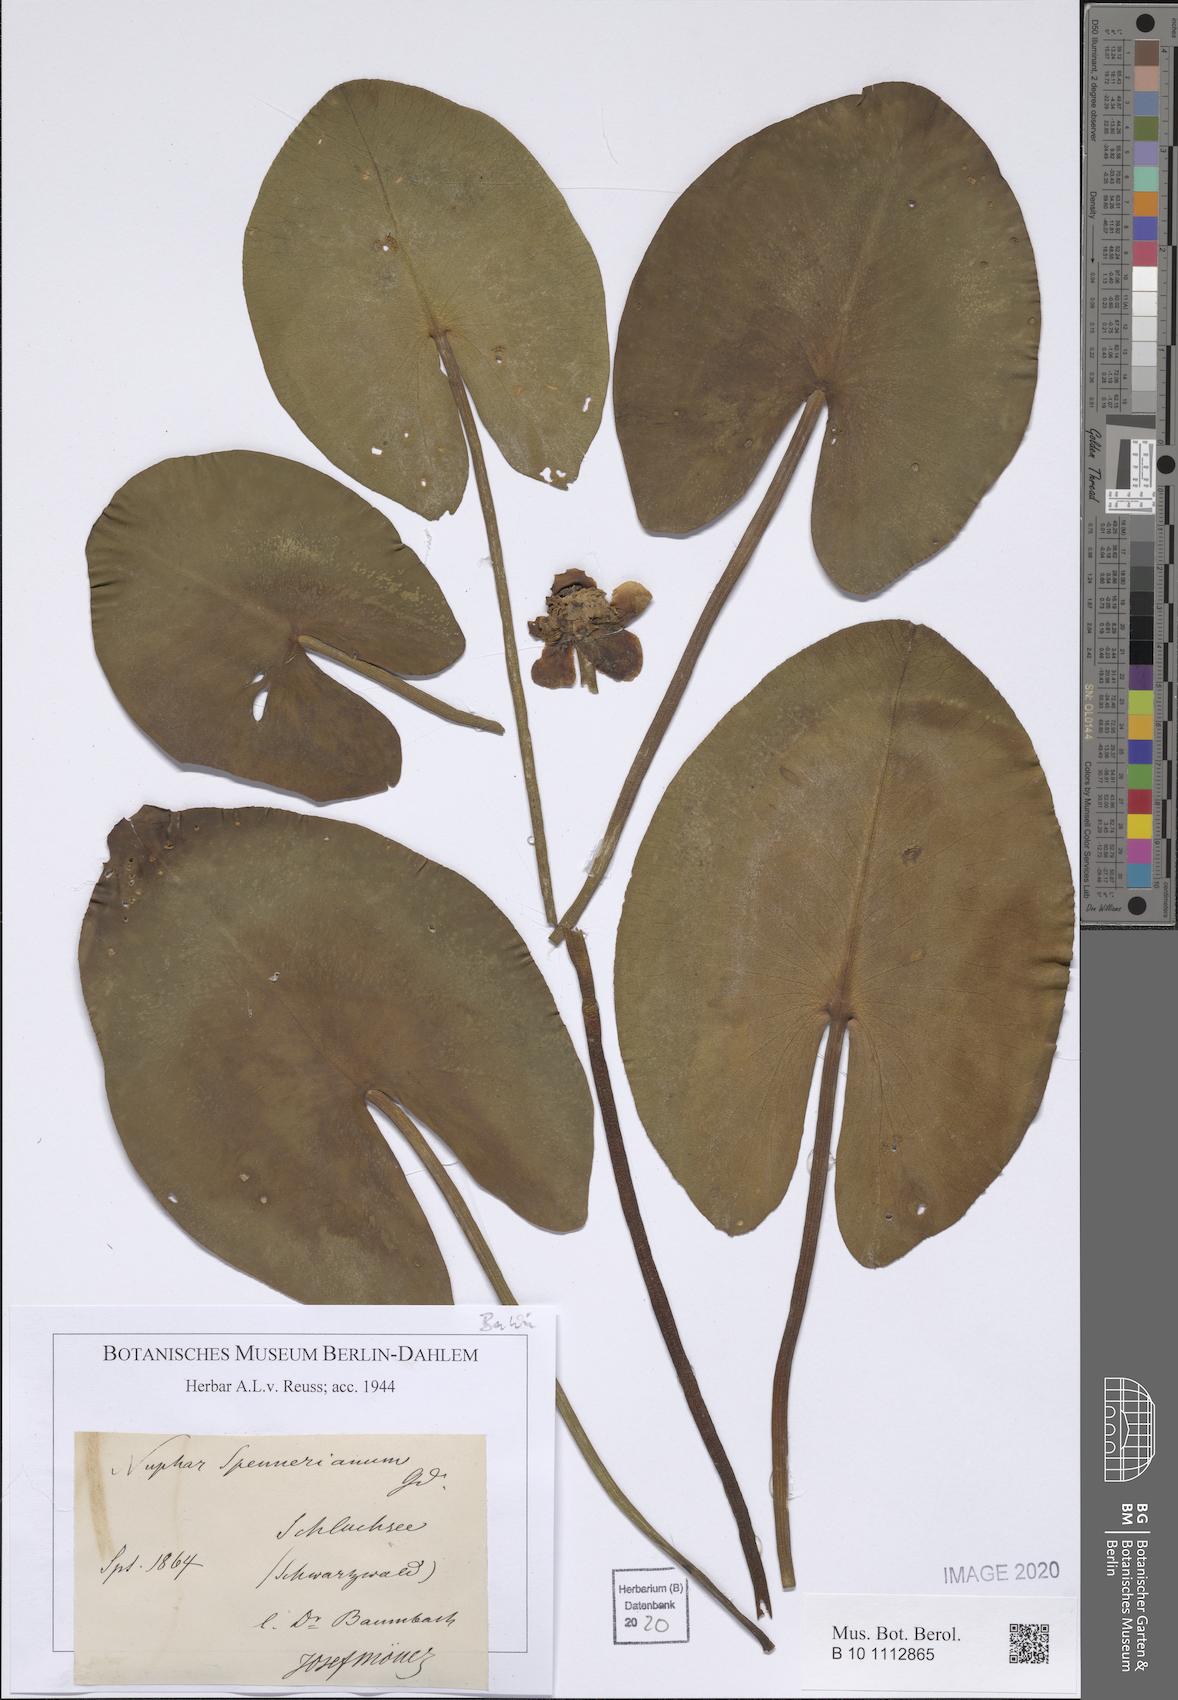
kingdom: Plantae
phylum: Tracheophyta
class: Magnoliopsida
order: Nymphaeales
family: Nymphaeaceae
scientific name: Nymphaeaceae
